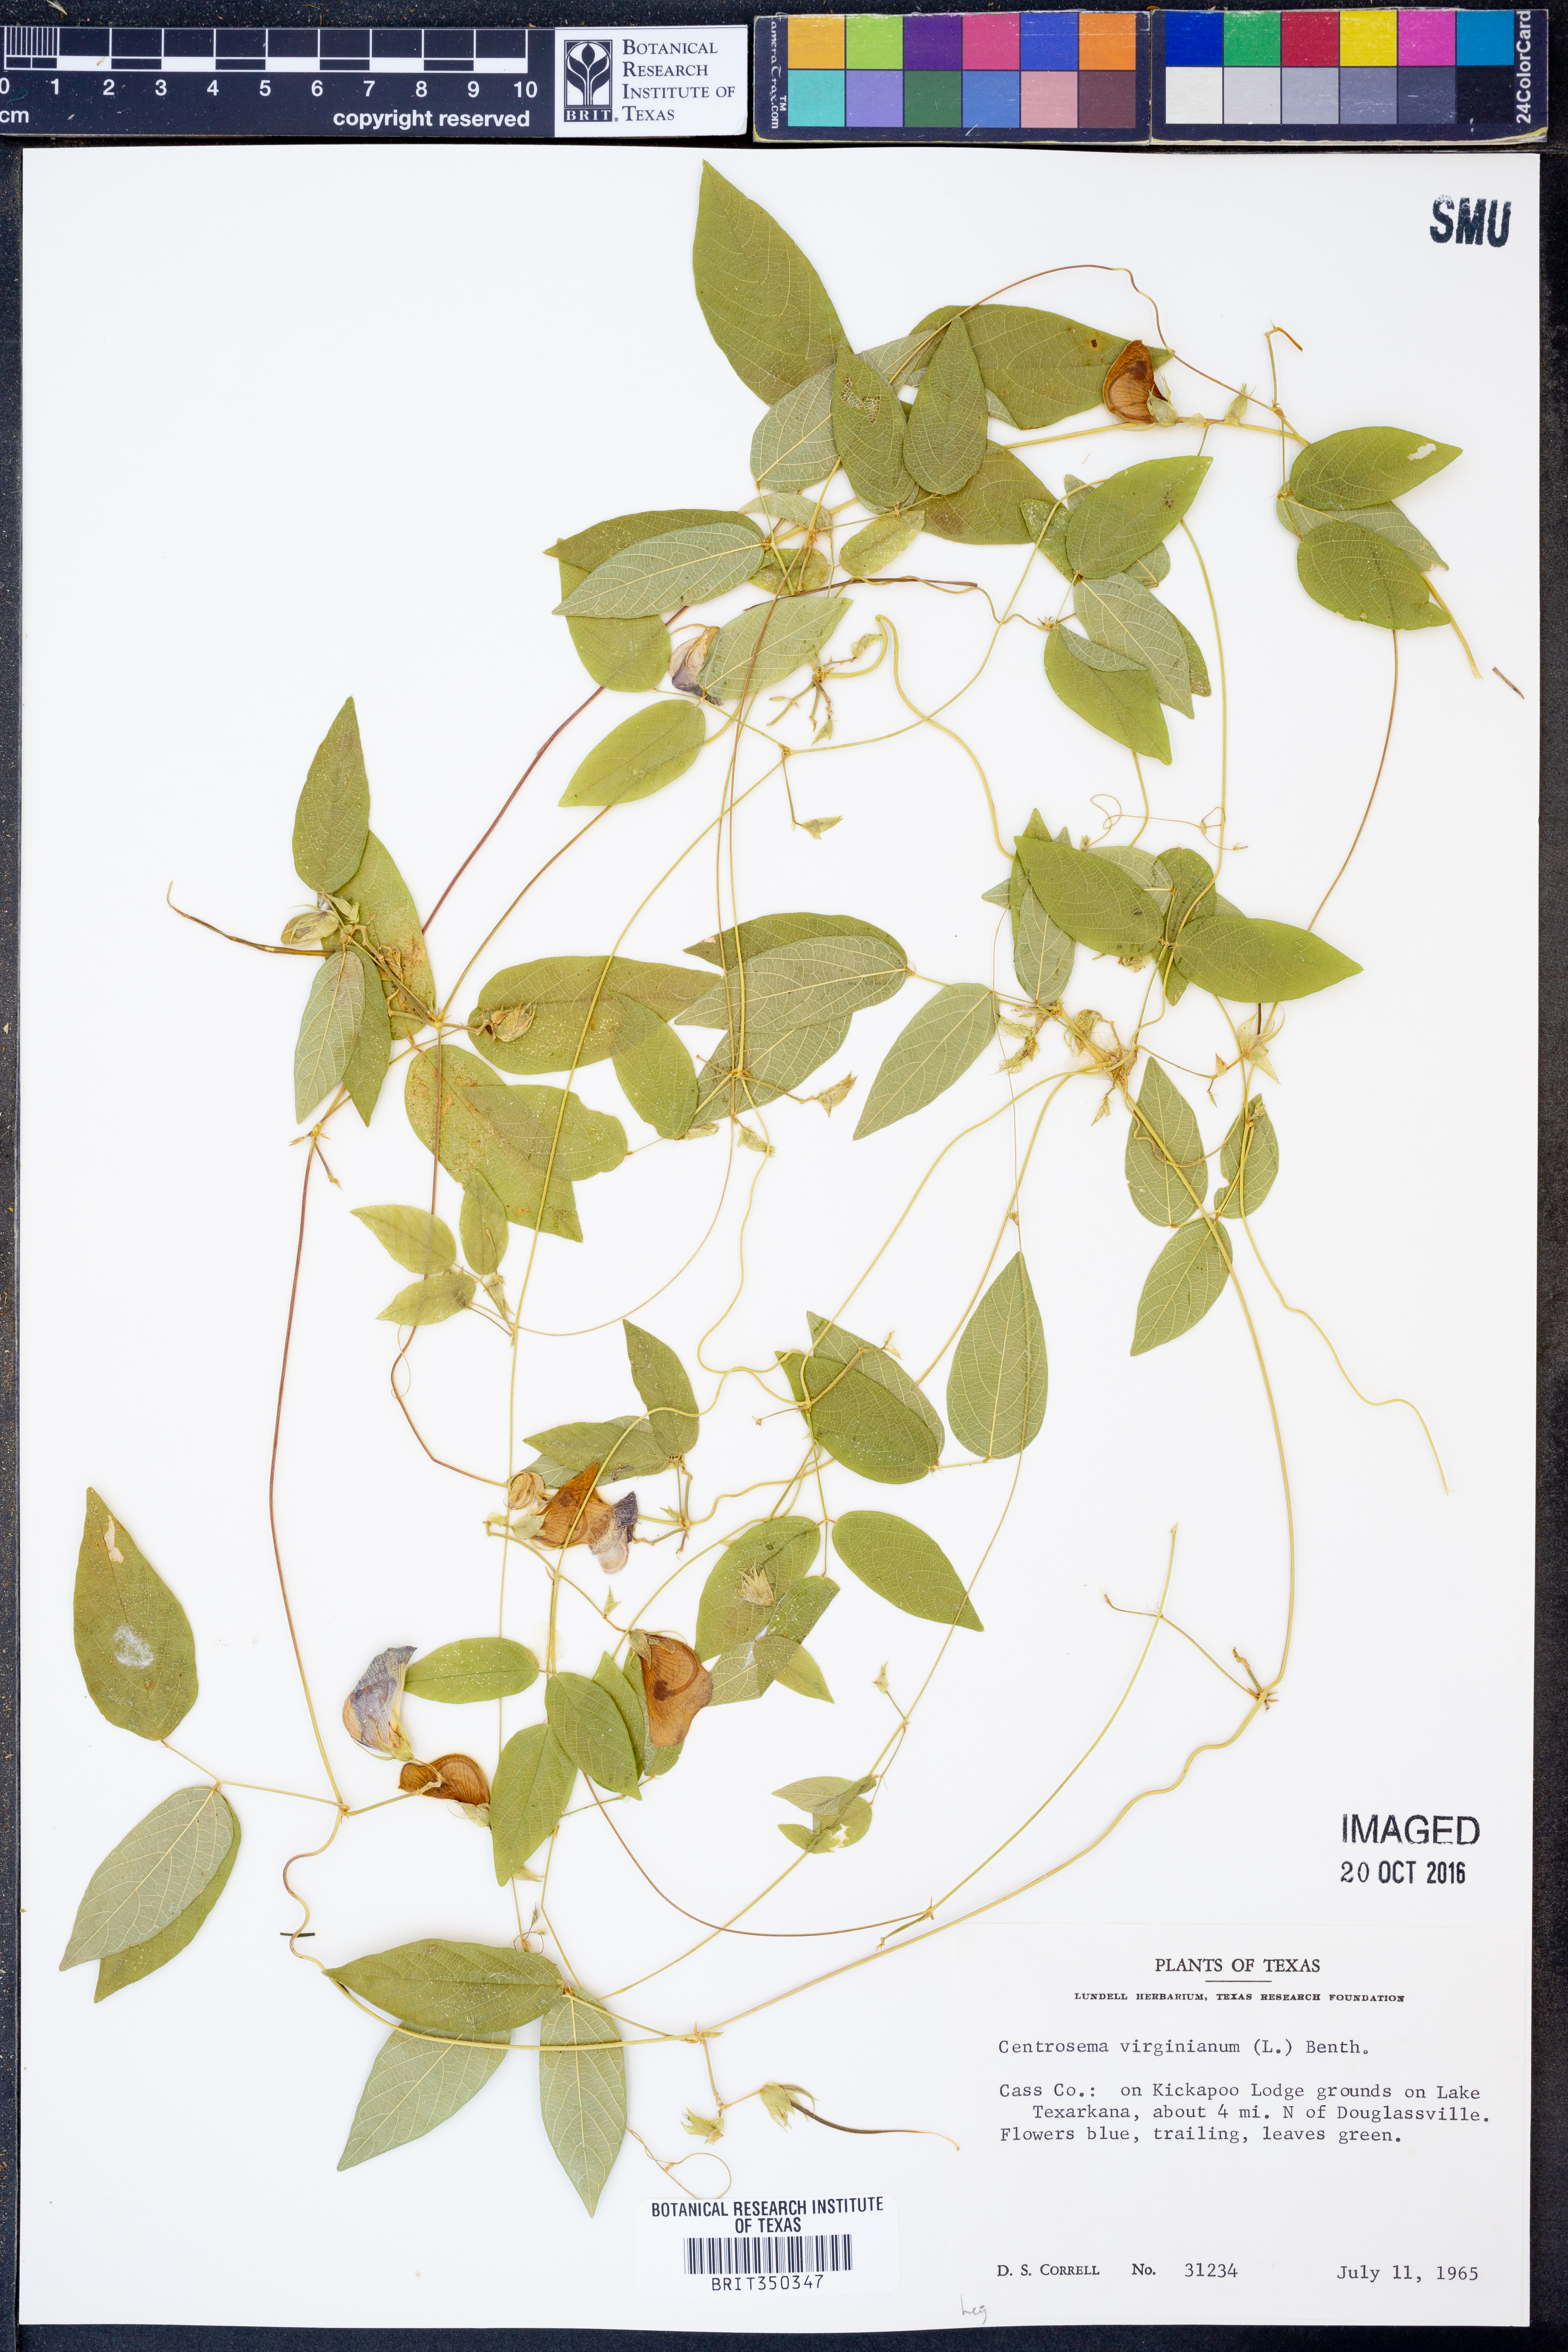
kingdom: Plantae
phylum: Tracheophyta
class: Magnoliopsida
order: Fabales
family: Fabaceae
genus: Centrosema
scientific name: Centrosema virginianum
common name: Butterfly-pea
